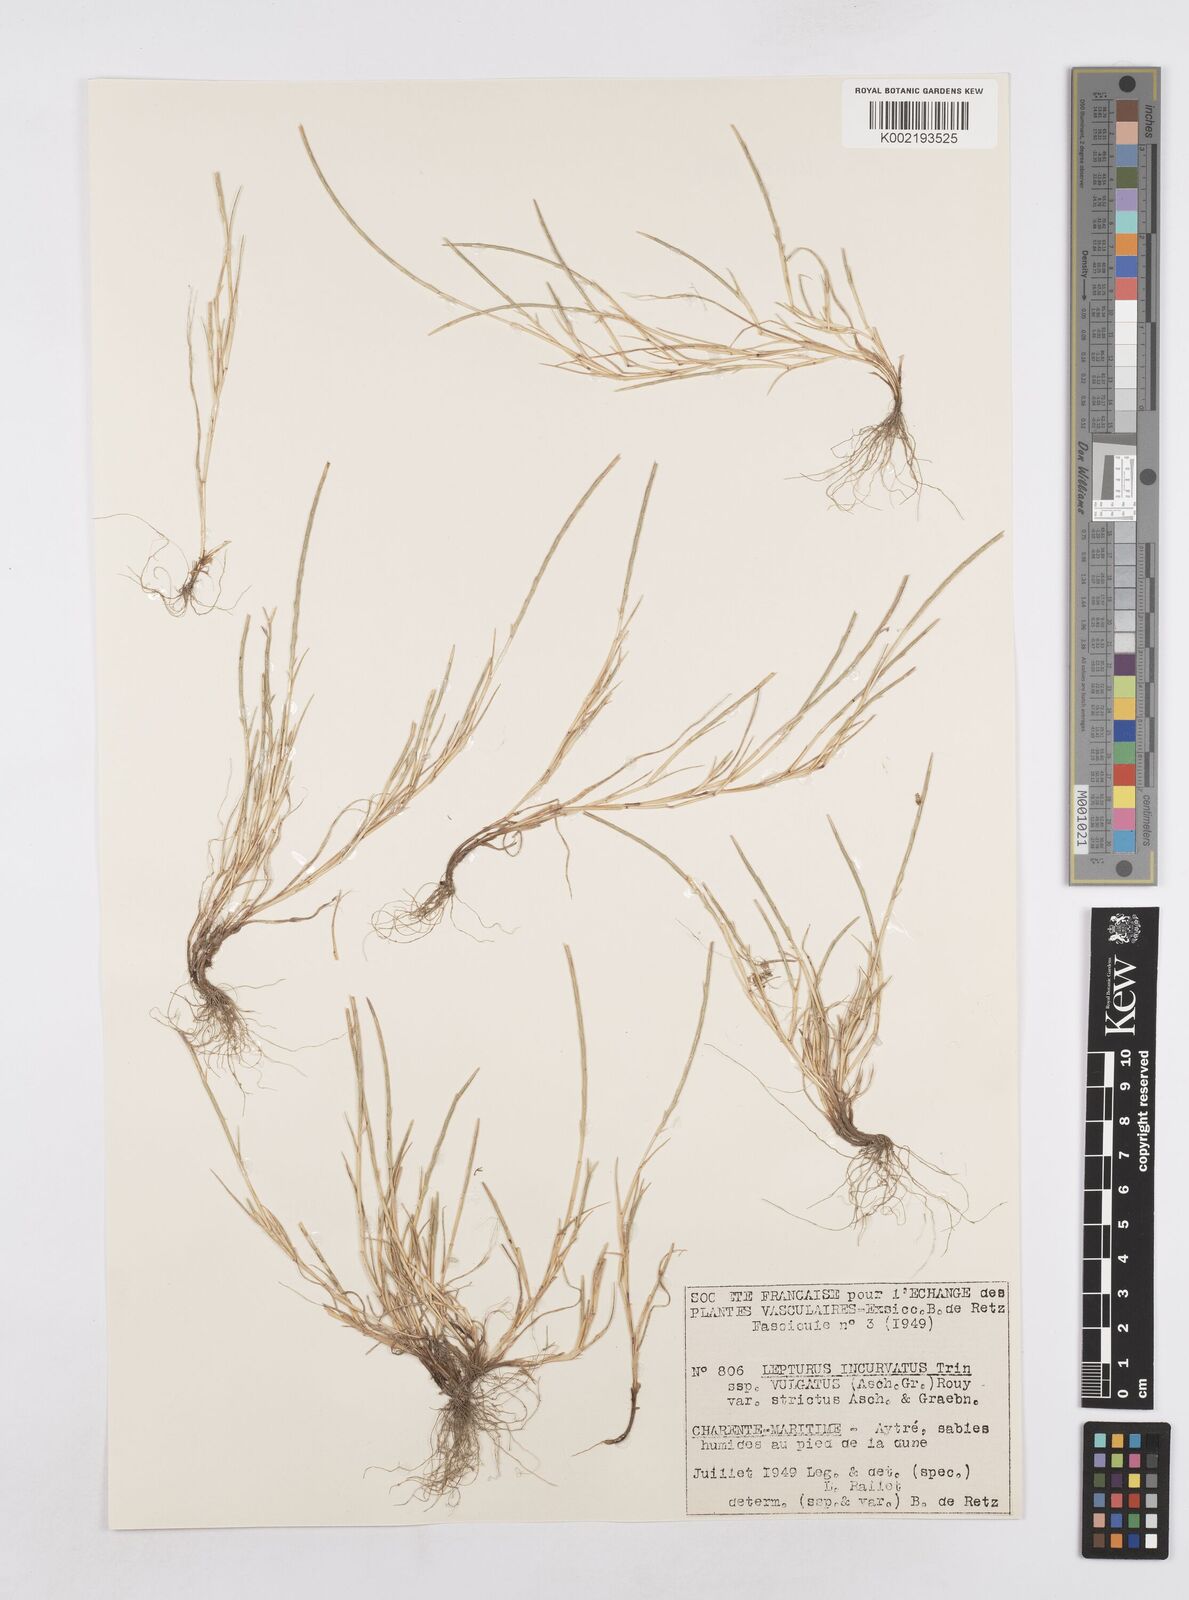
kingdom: Plantae
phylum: Tracheophyta
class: Liliopsida
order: Poales
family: Poaceae
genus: Parapholis
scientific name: Parapholis incurva
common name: Curved sicklegrass
